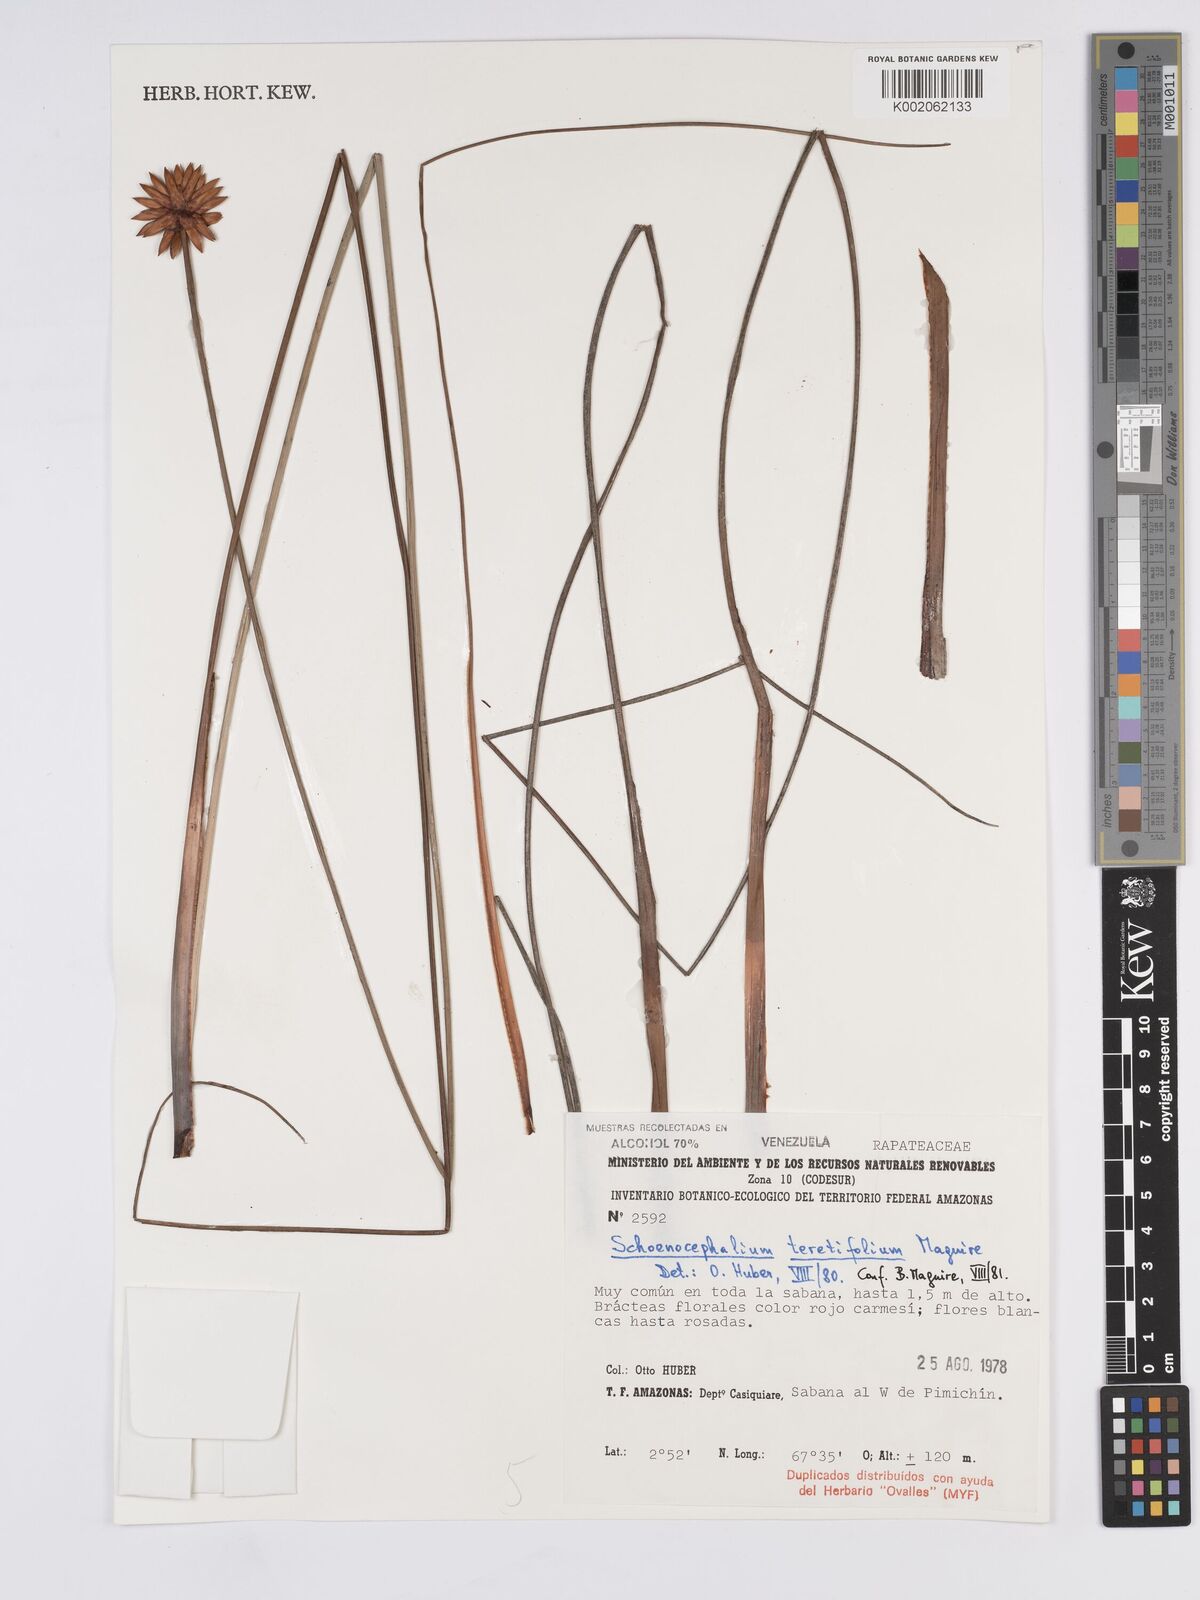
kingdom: Plantae
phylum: Tracheophyta
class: Liliopsida
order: Poales
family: Rapateaceae
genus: Schoenocephalium
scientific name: Schoenocephalium teretifolium
